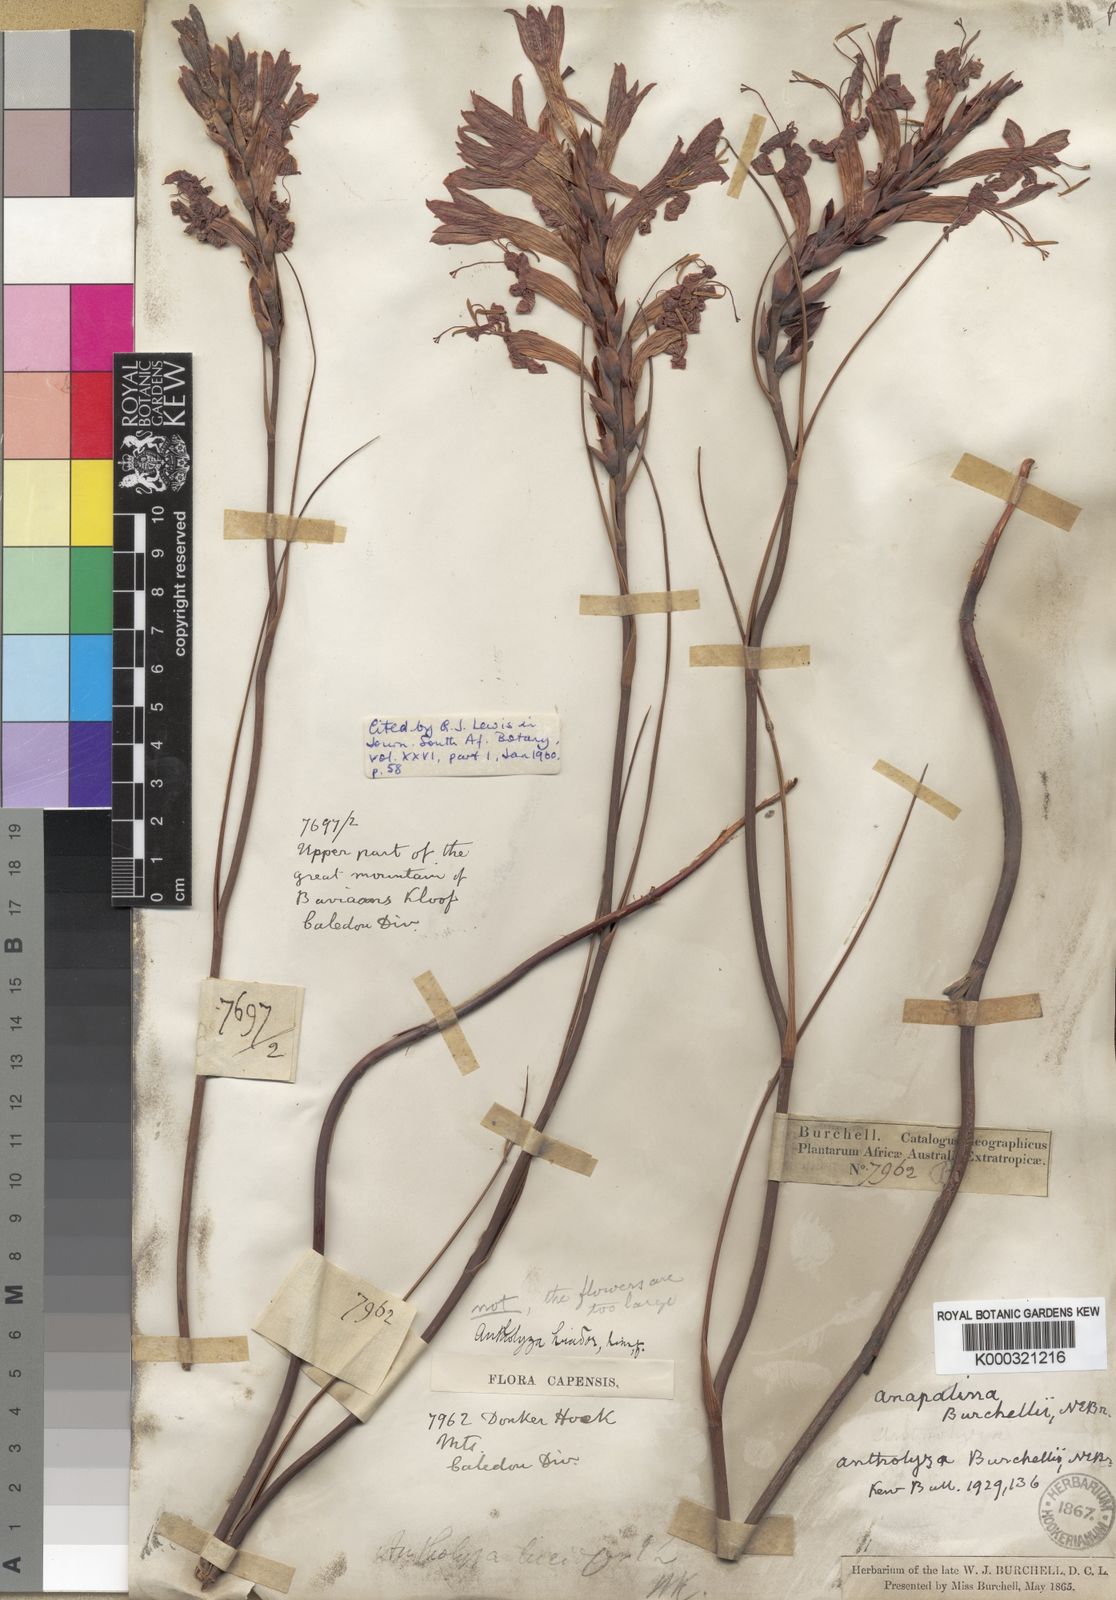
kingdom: Plantae
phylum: Tracheophyta
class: Liliopsida
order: Asparagales
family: Iridaceae
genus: Tritoniopsis
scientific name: Tritoniopsis triticea
